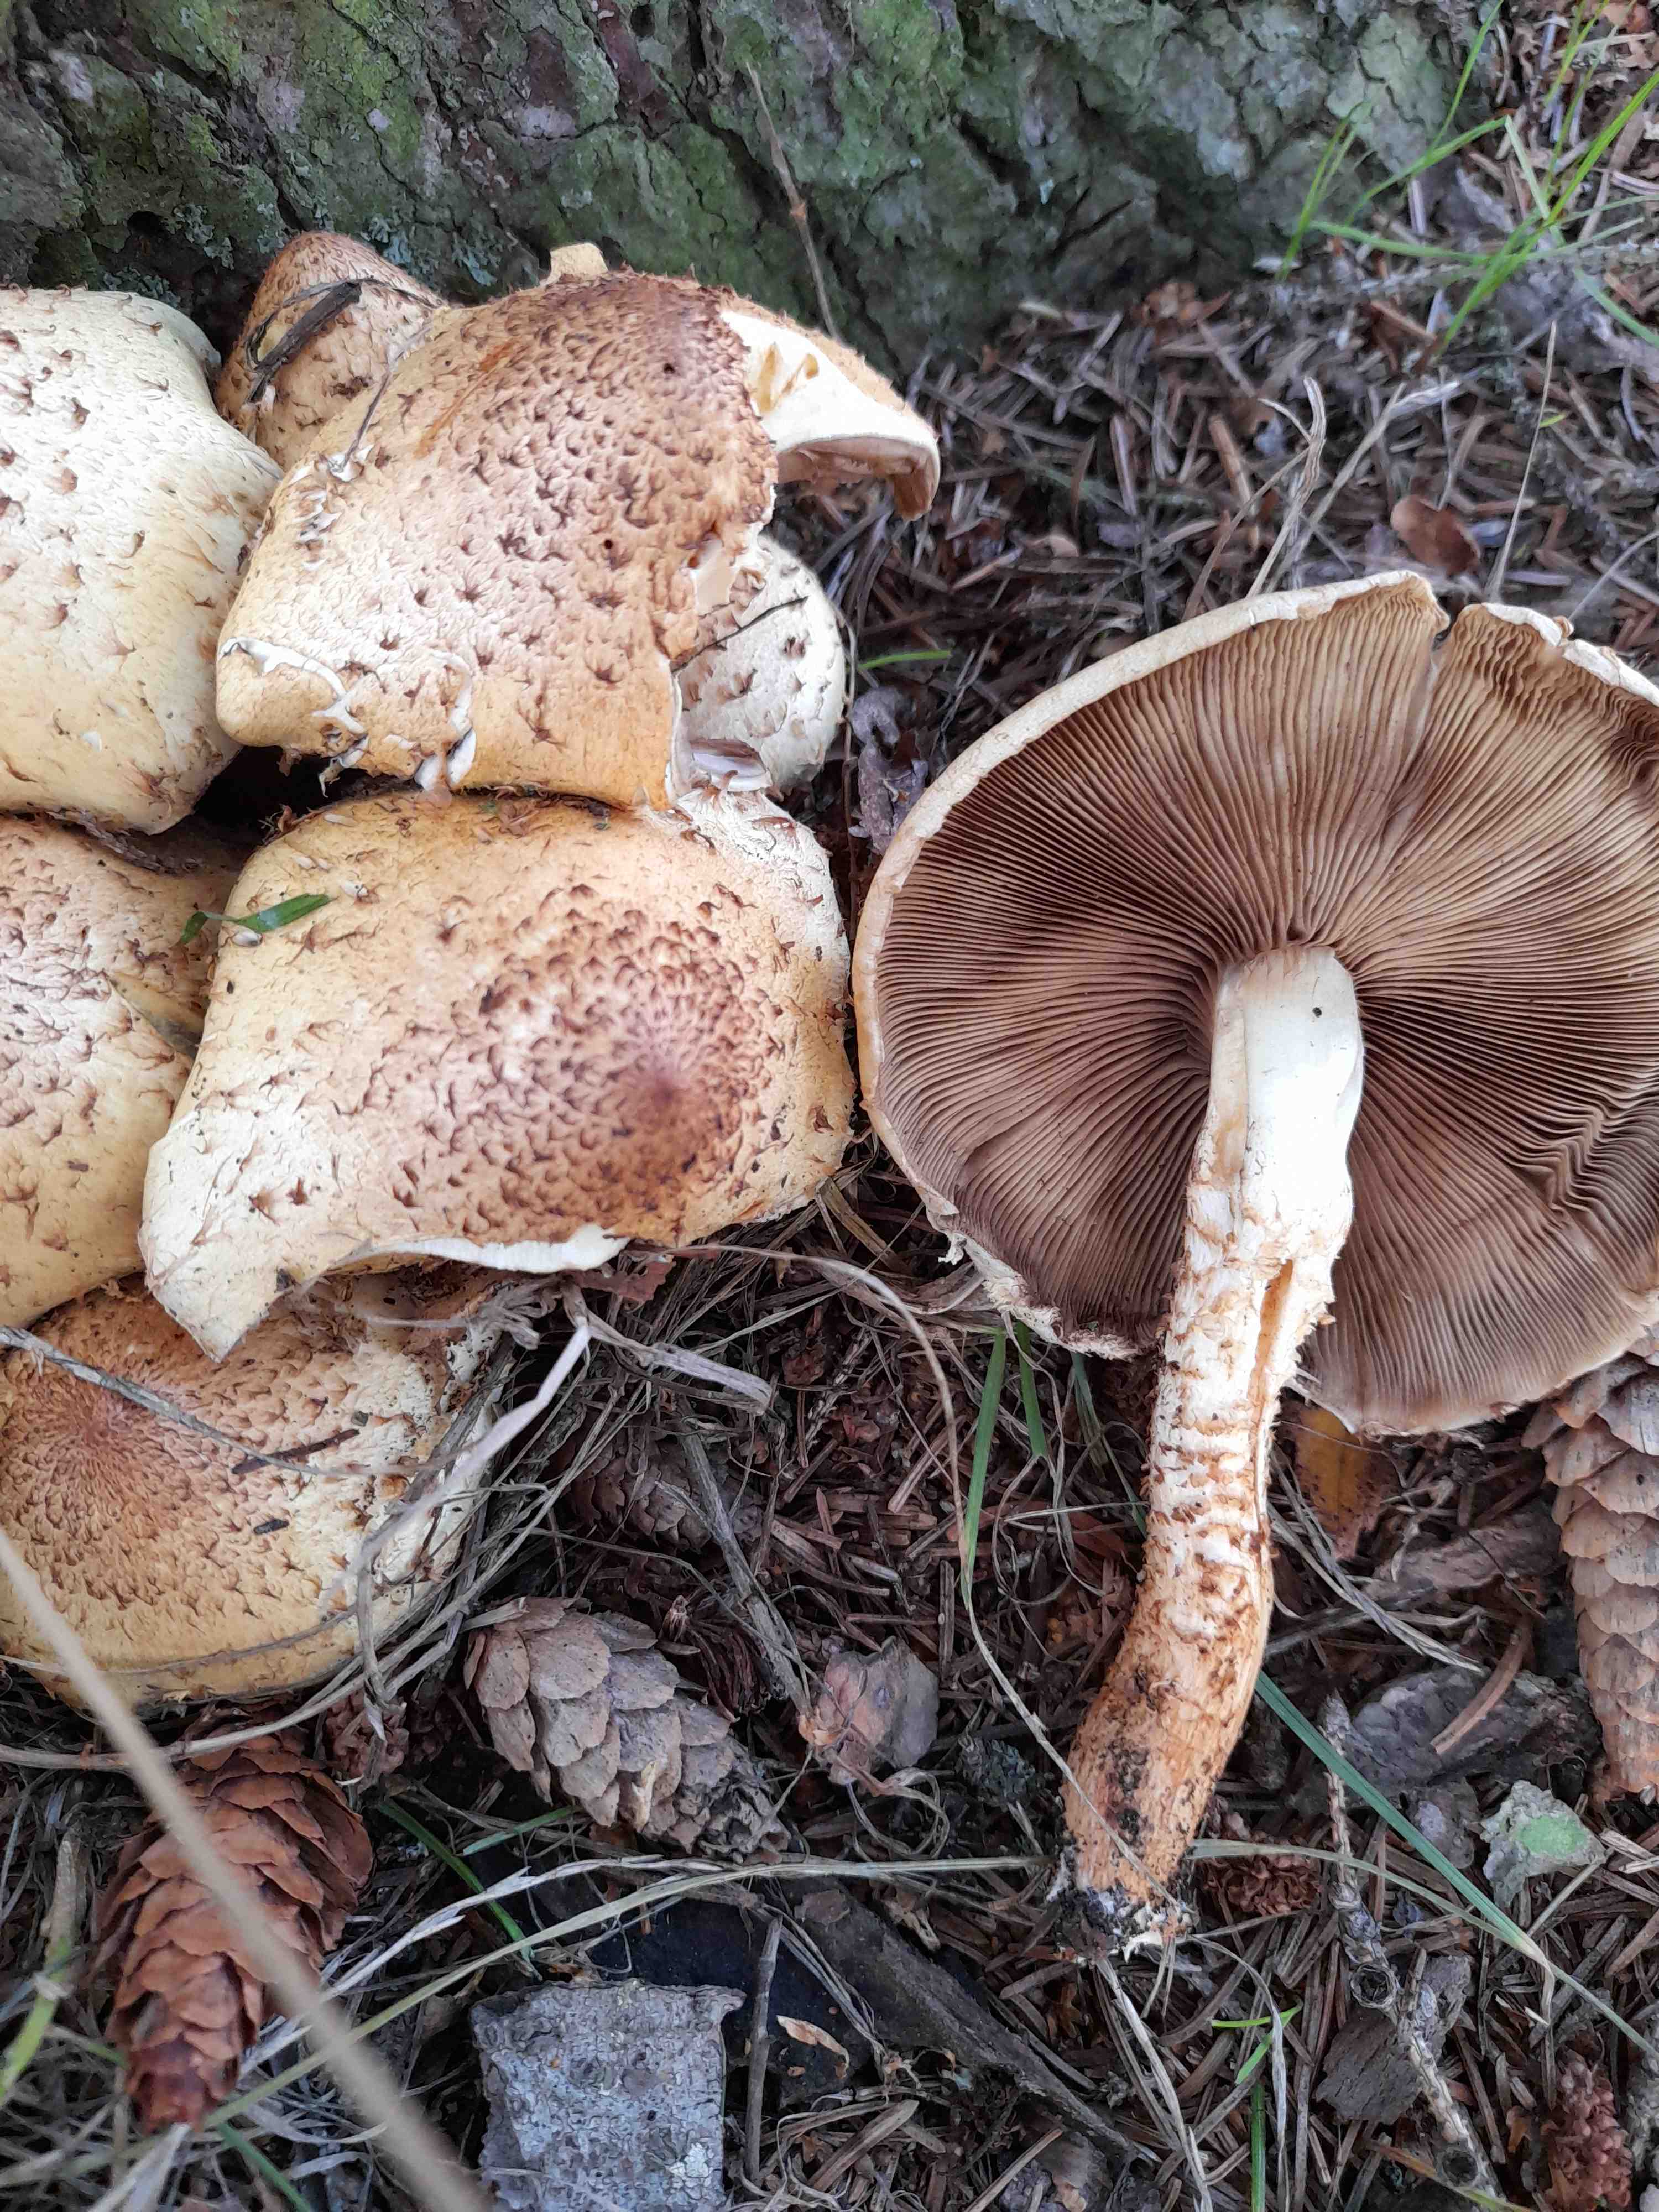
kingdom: Fungi
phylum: Basidiomycota
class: Agaricomycetes
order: Agaricales
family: Strophariaceae
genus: Pholiota
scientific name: Pholiota squarrosa
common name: krumskællet skælhat
